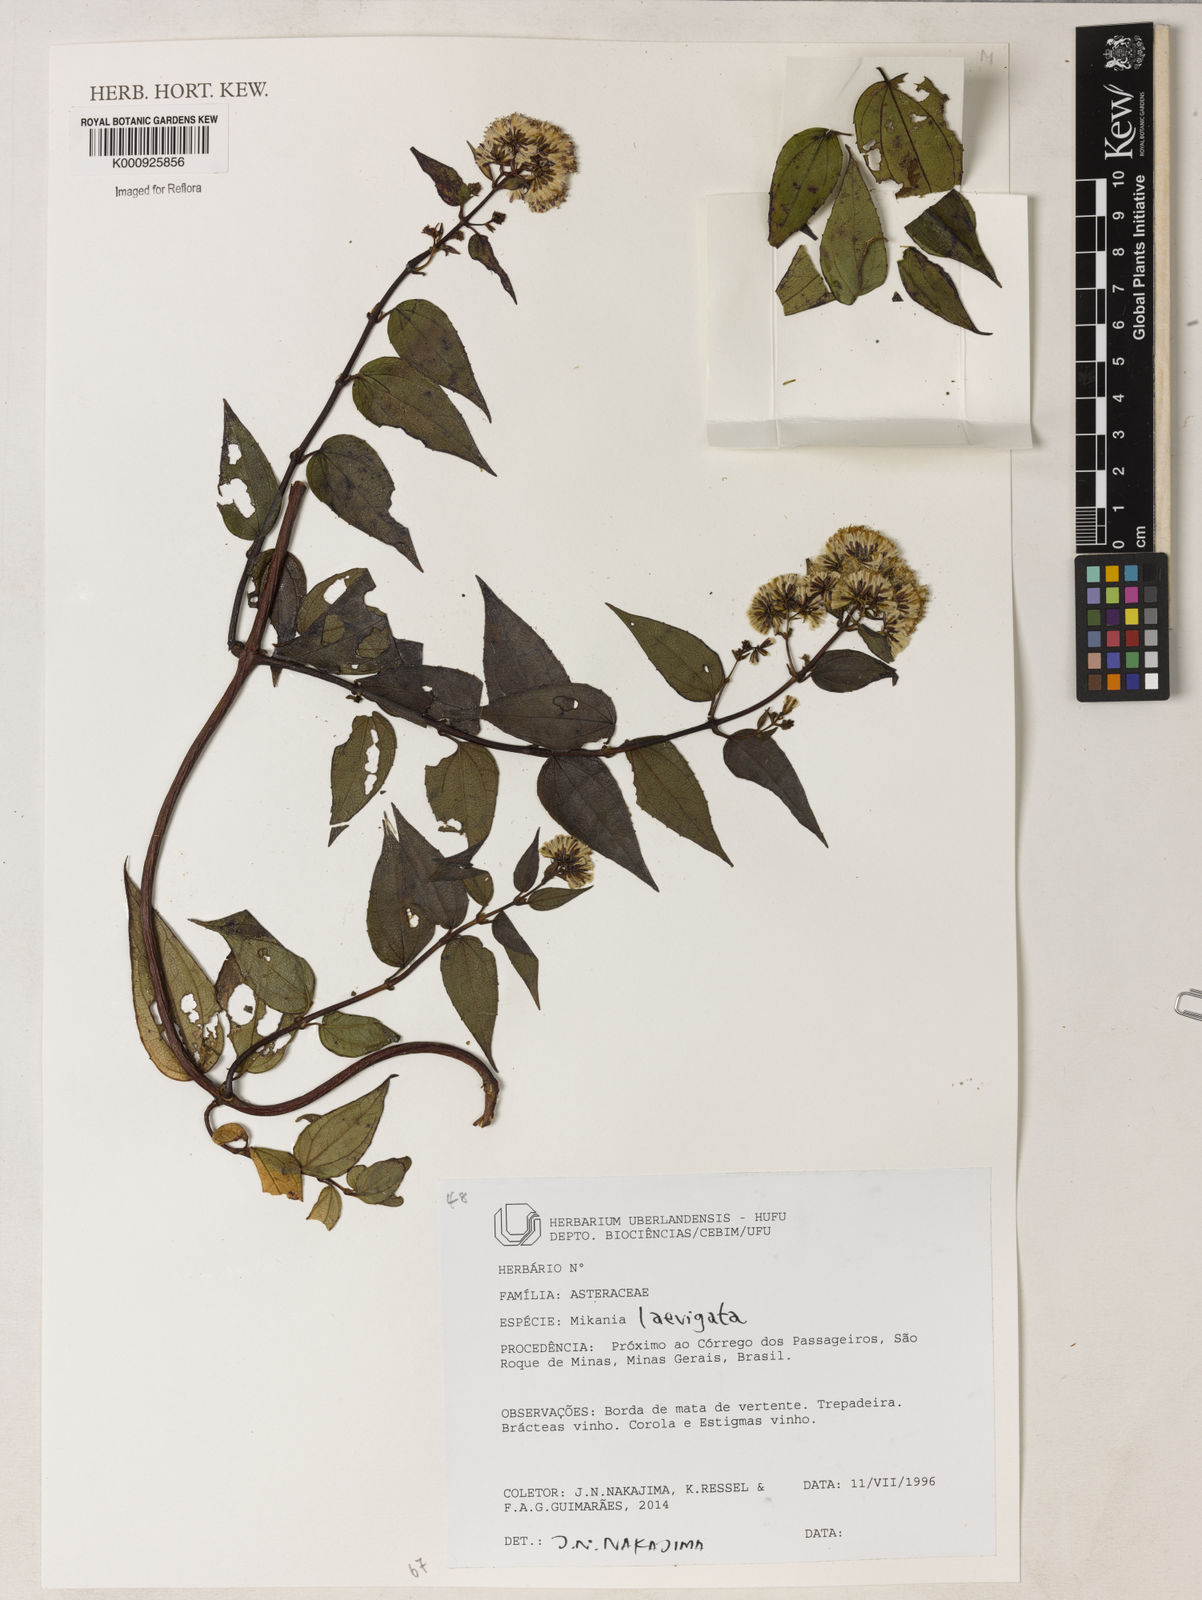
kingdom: Plantae
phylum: Tracheophyta
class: Magnoliopsida
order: Asterales
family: Asteraceae
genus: Mikania
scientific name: Mikania stylosa
